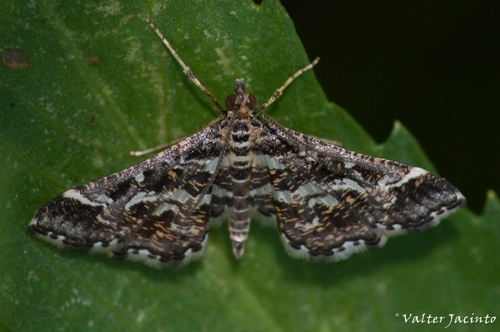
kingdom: Animalia
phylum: Arthropoda
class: Insecta
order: Lepidoptera
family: Crambidae
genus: Diasemiopsis
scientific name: Diasemiopsis ramburialis
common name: Vagrant china-mark
